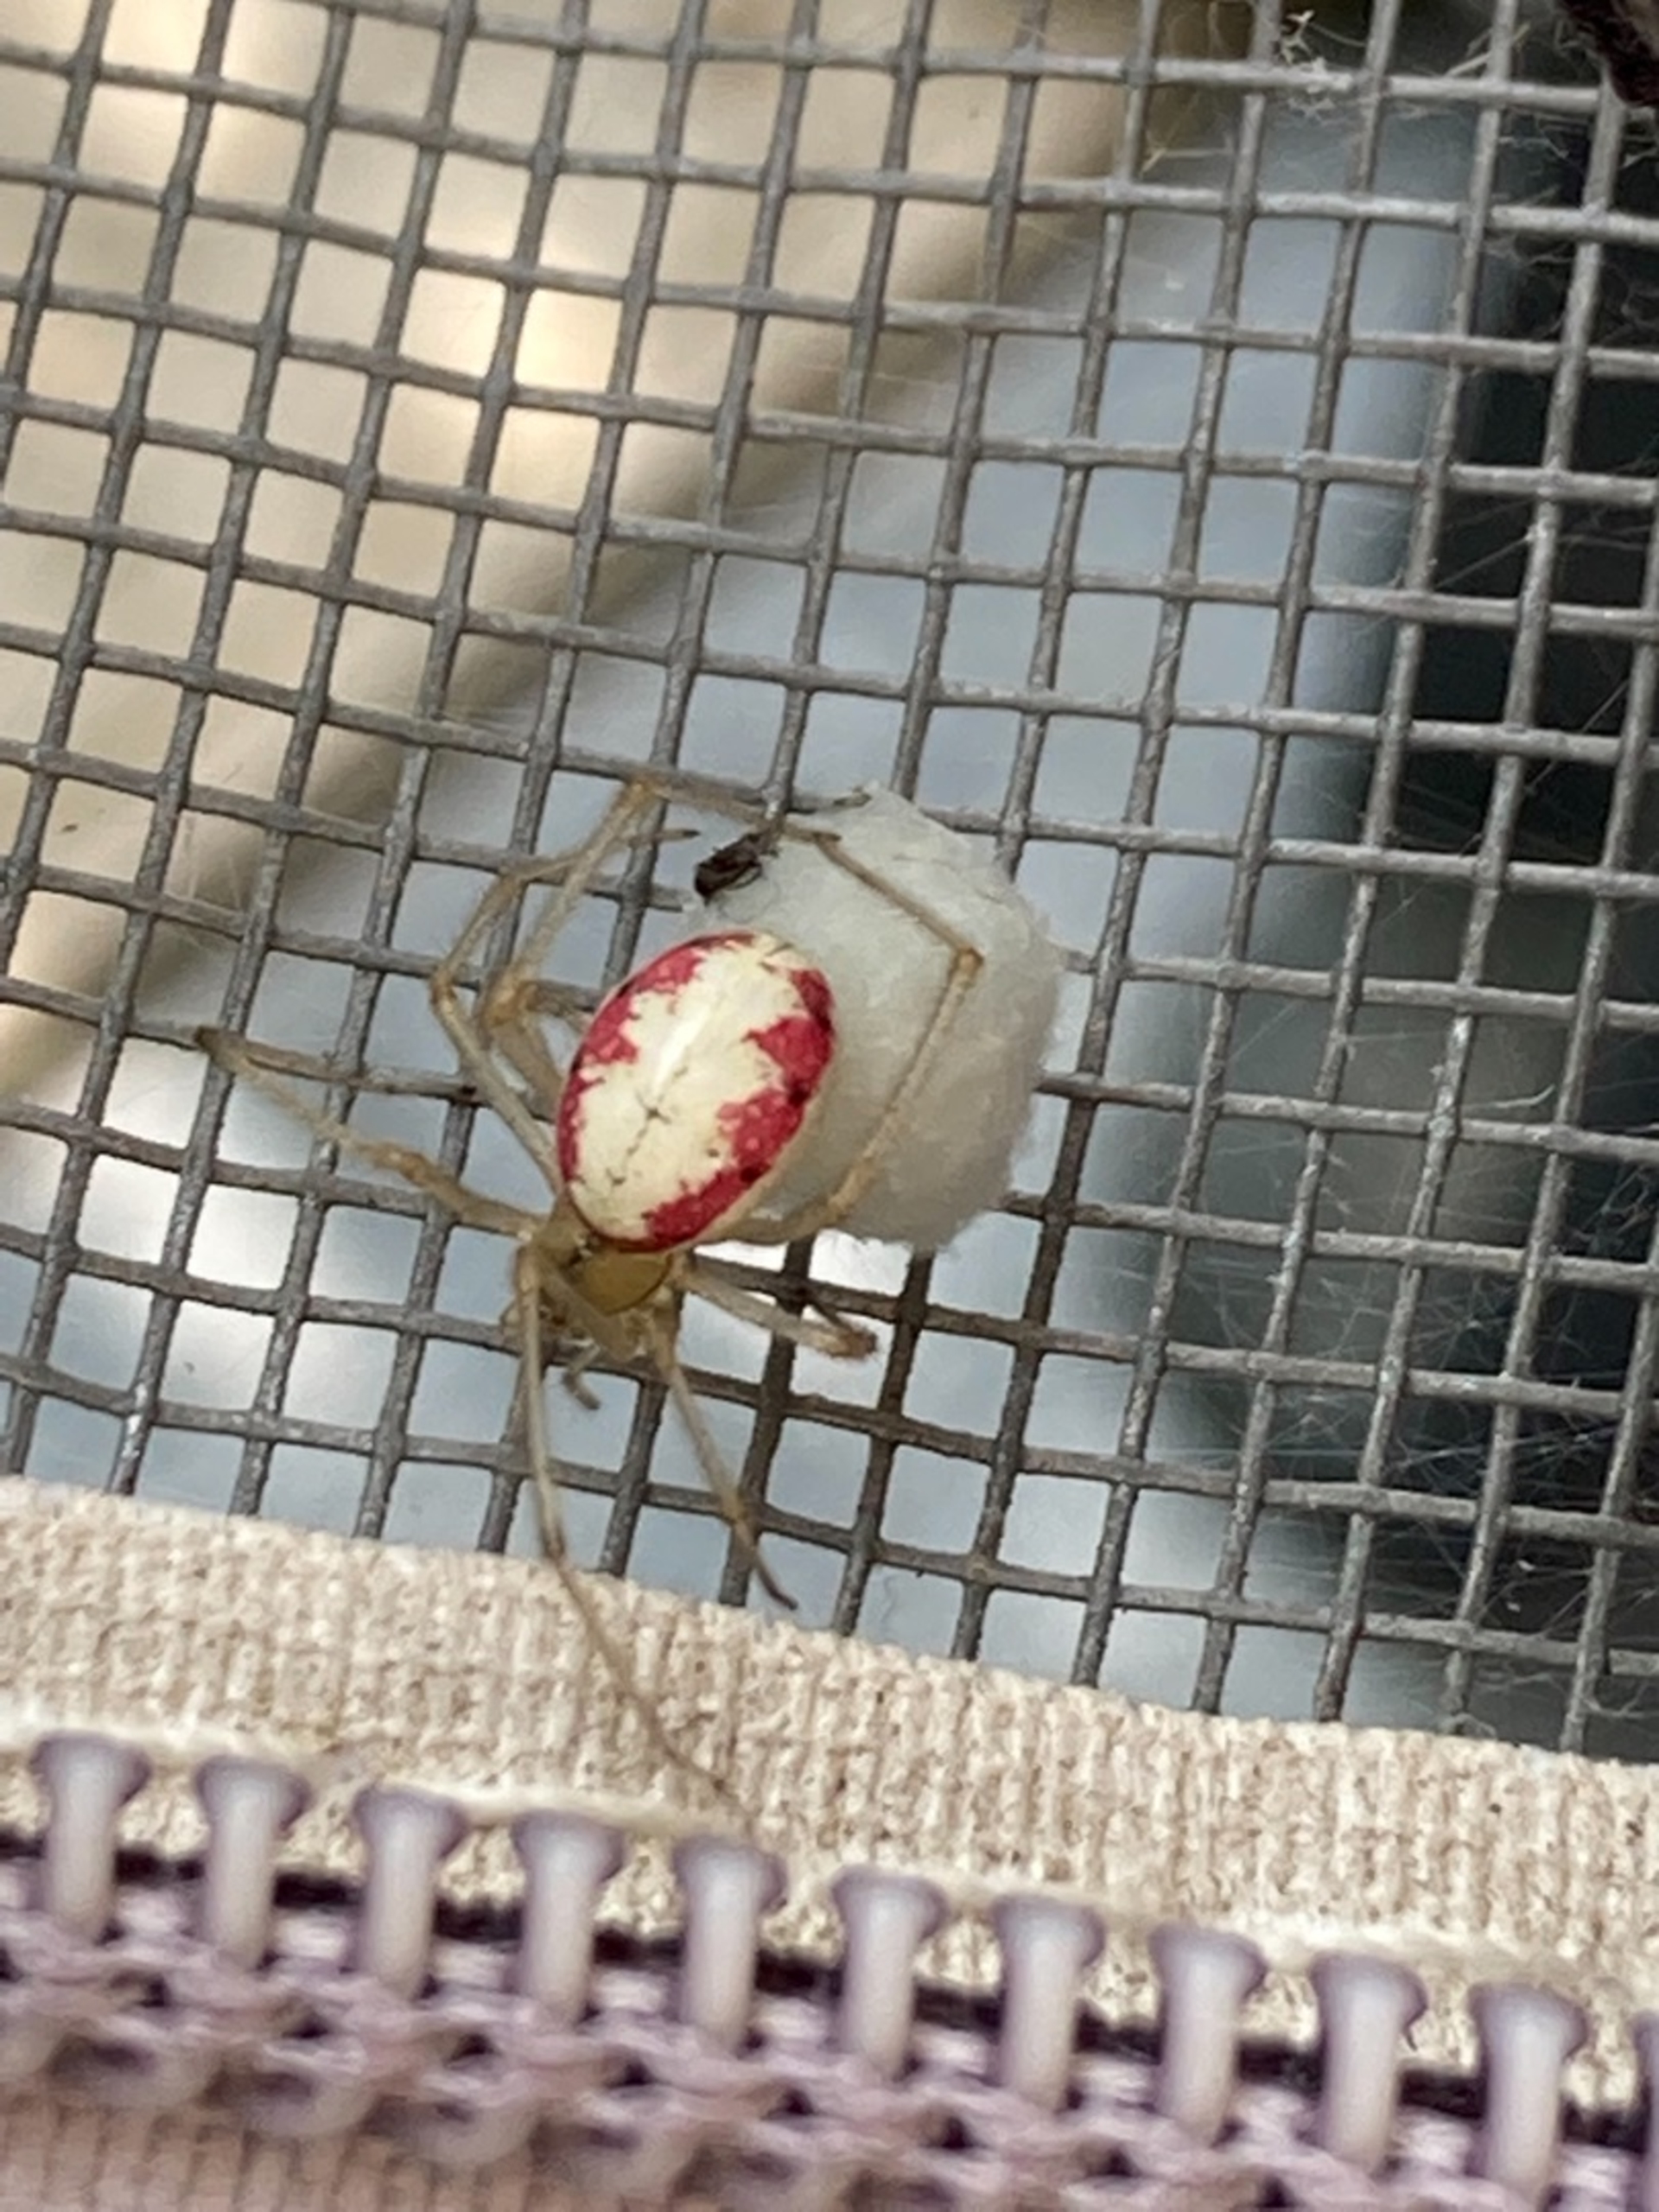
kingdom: Animalia
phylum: Arthropoda
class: Arachnida
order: Araneae
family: Theridiidae
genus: Enoplognatha
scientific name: Enoplognatha
